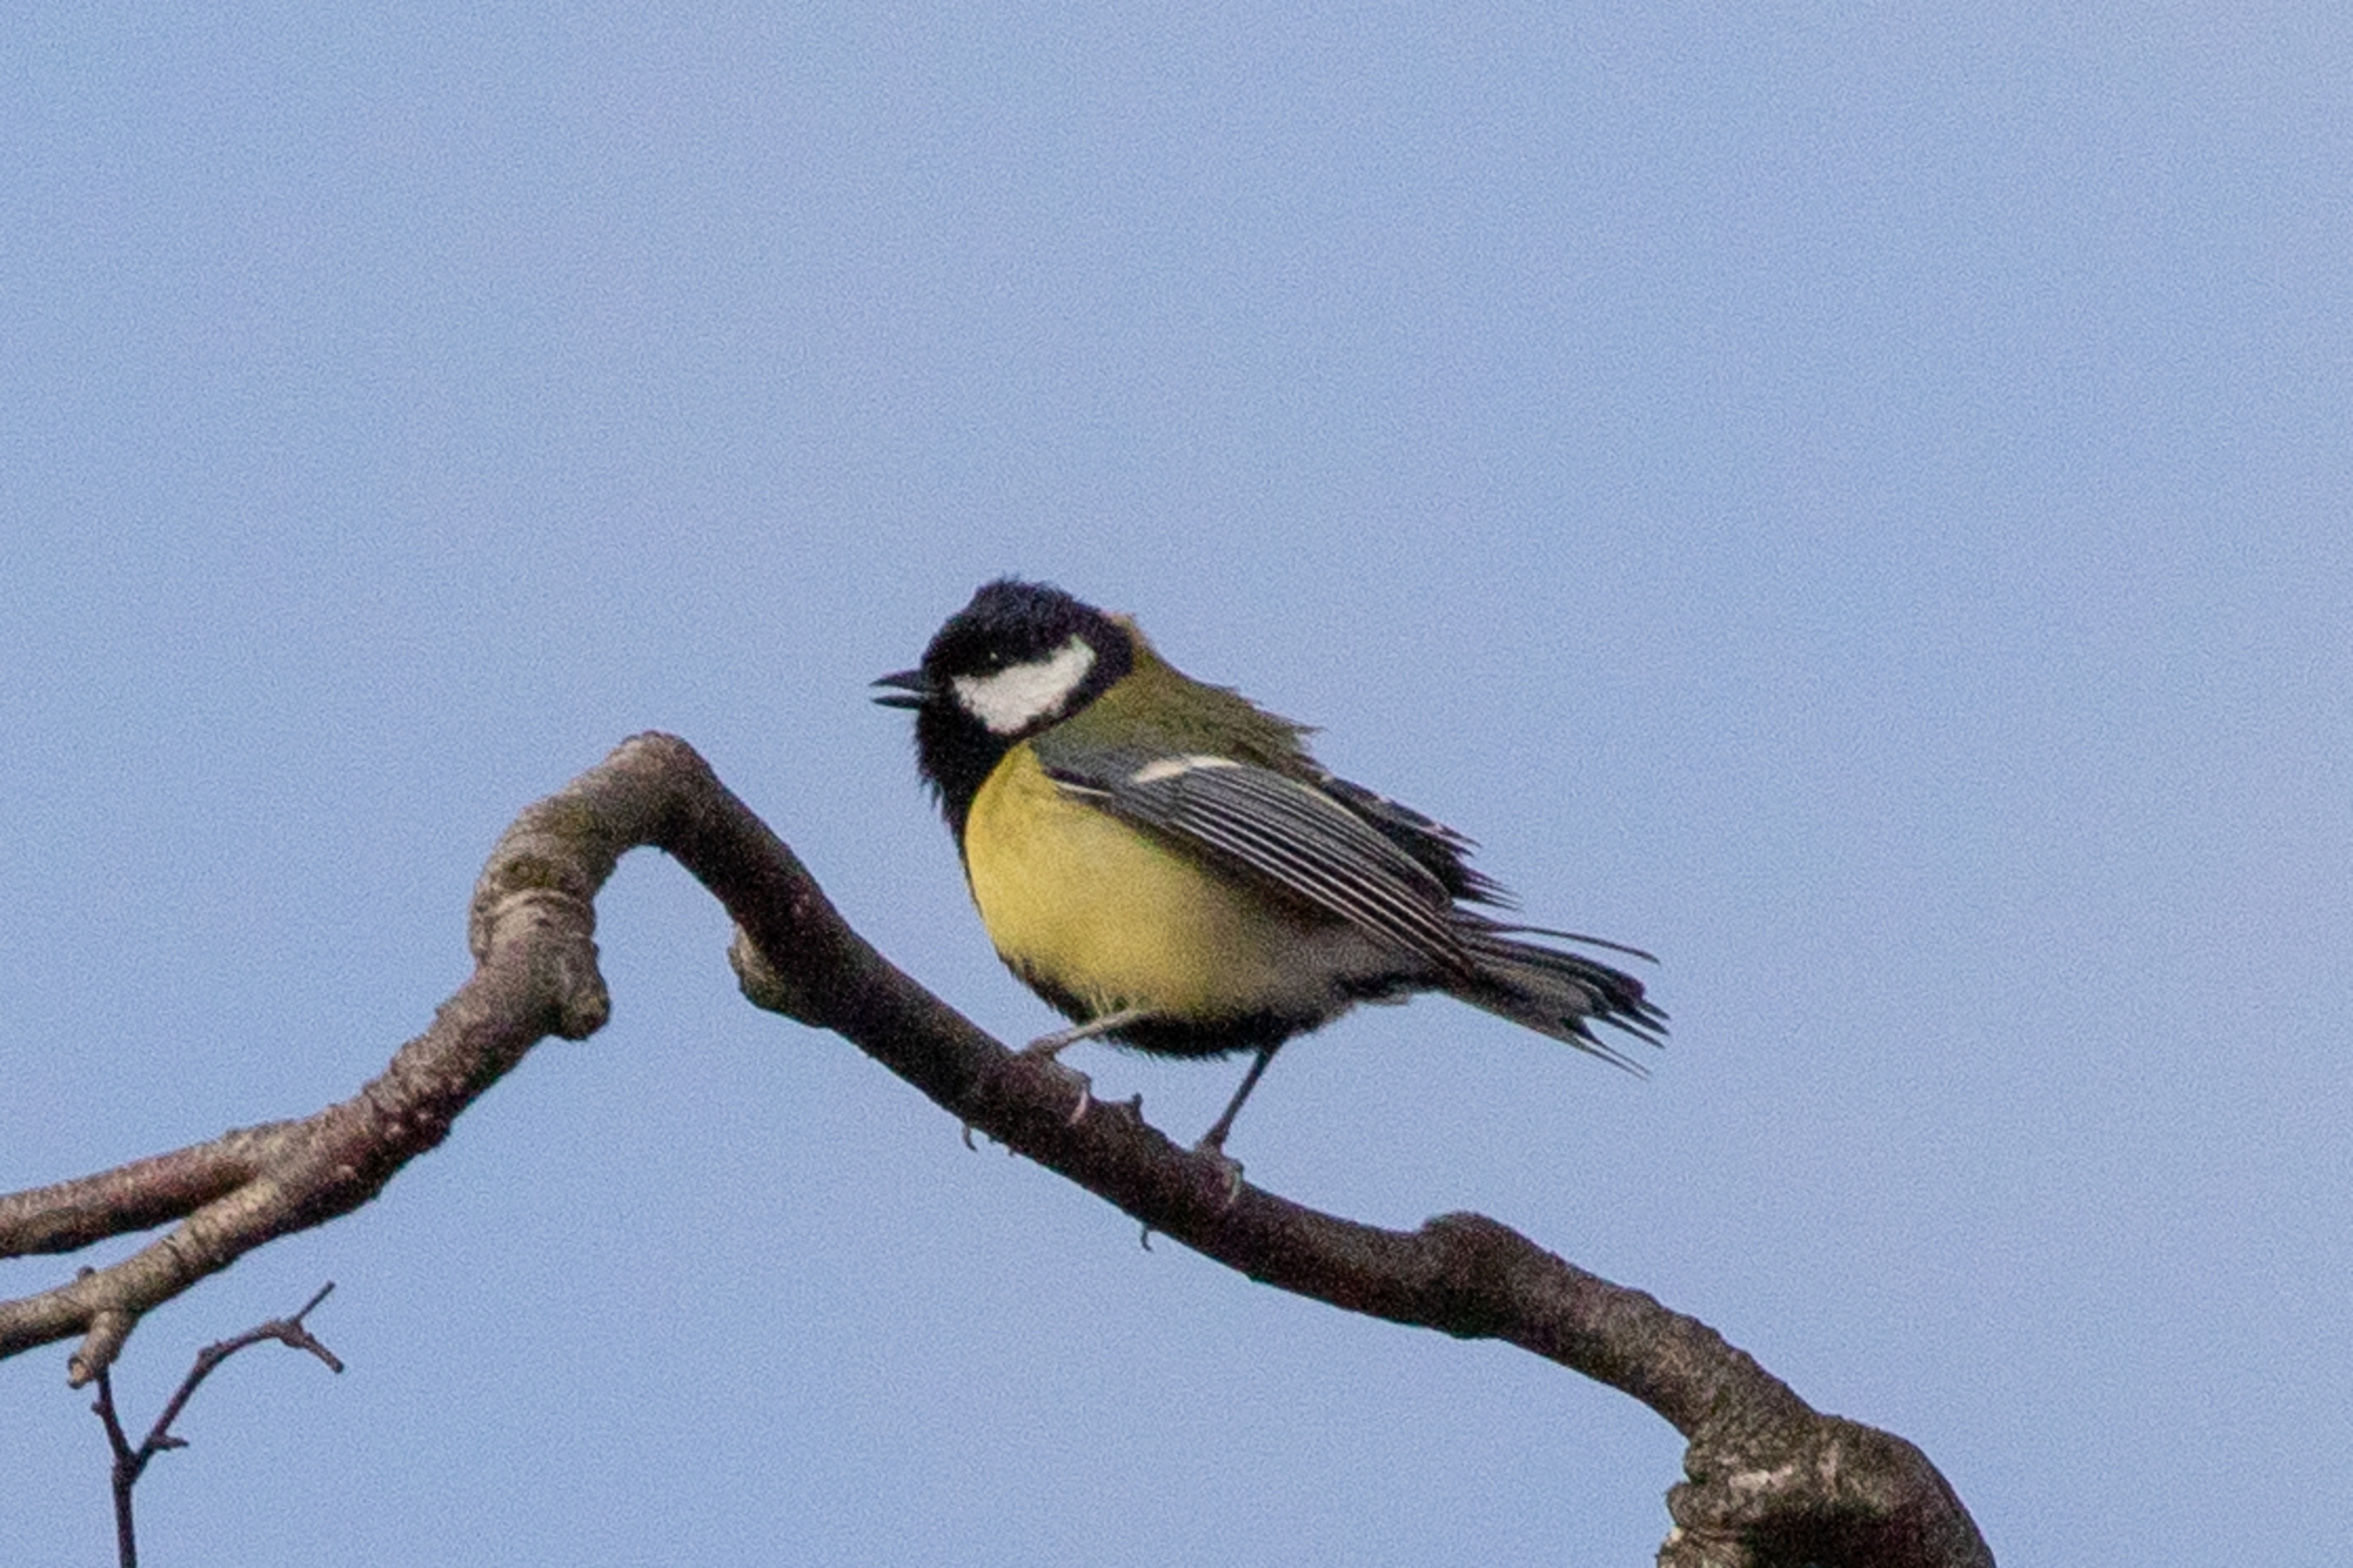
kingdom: Animalia
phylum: Chordata
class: Aves
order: Passeriformes
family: Paridae
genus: Parus
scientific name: Parus major
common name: Musvit
